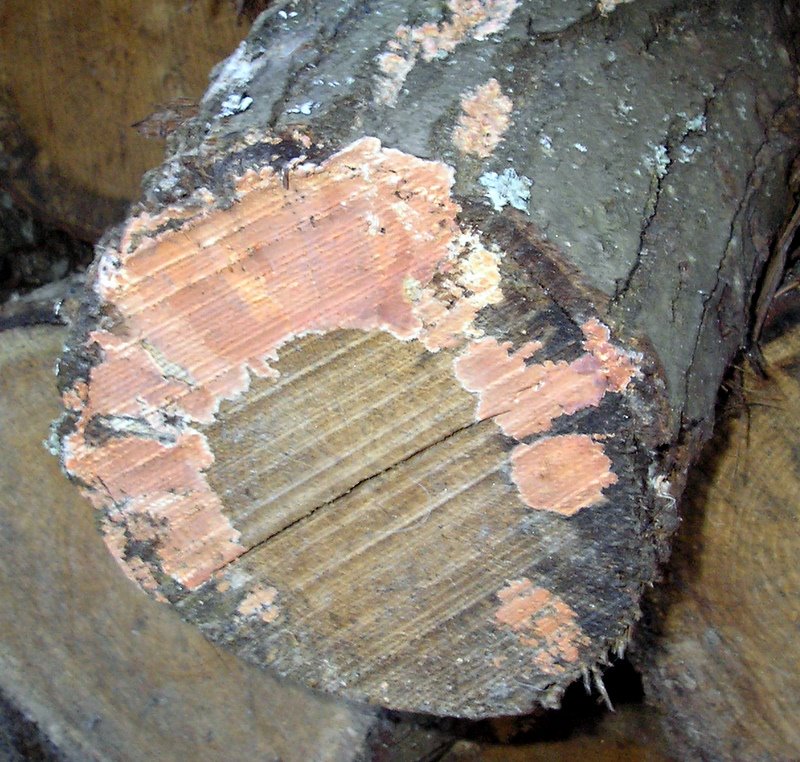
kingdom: Fungi
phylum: Basidiomycota
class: Agaricomycetes
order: Russulales
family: Peniophoraceae
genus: Peniophora
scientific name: Peniophora incarnata
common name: laksefarvet voksskind
